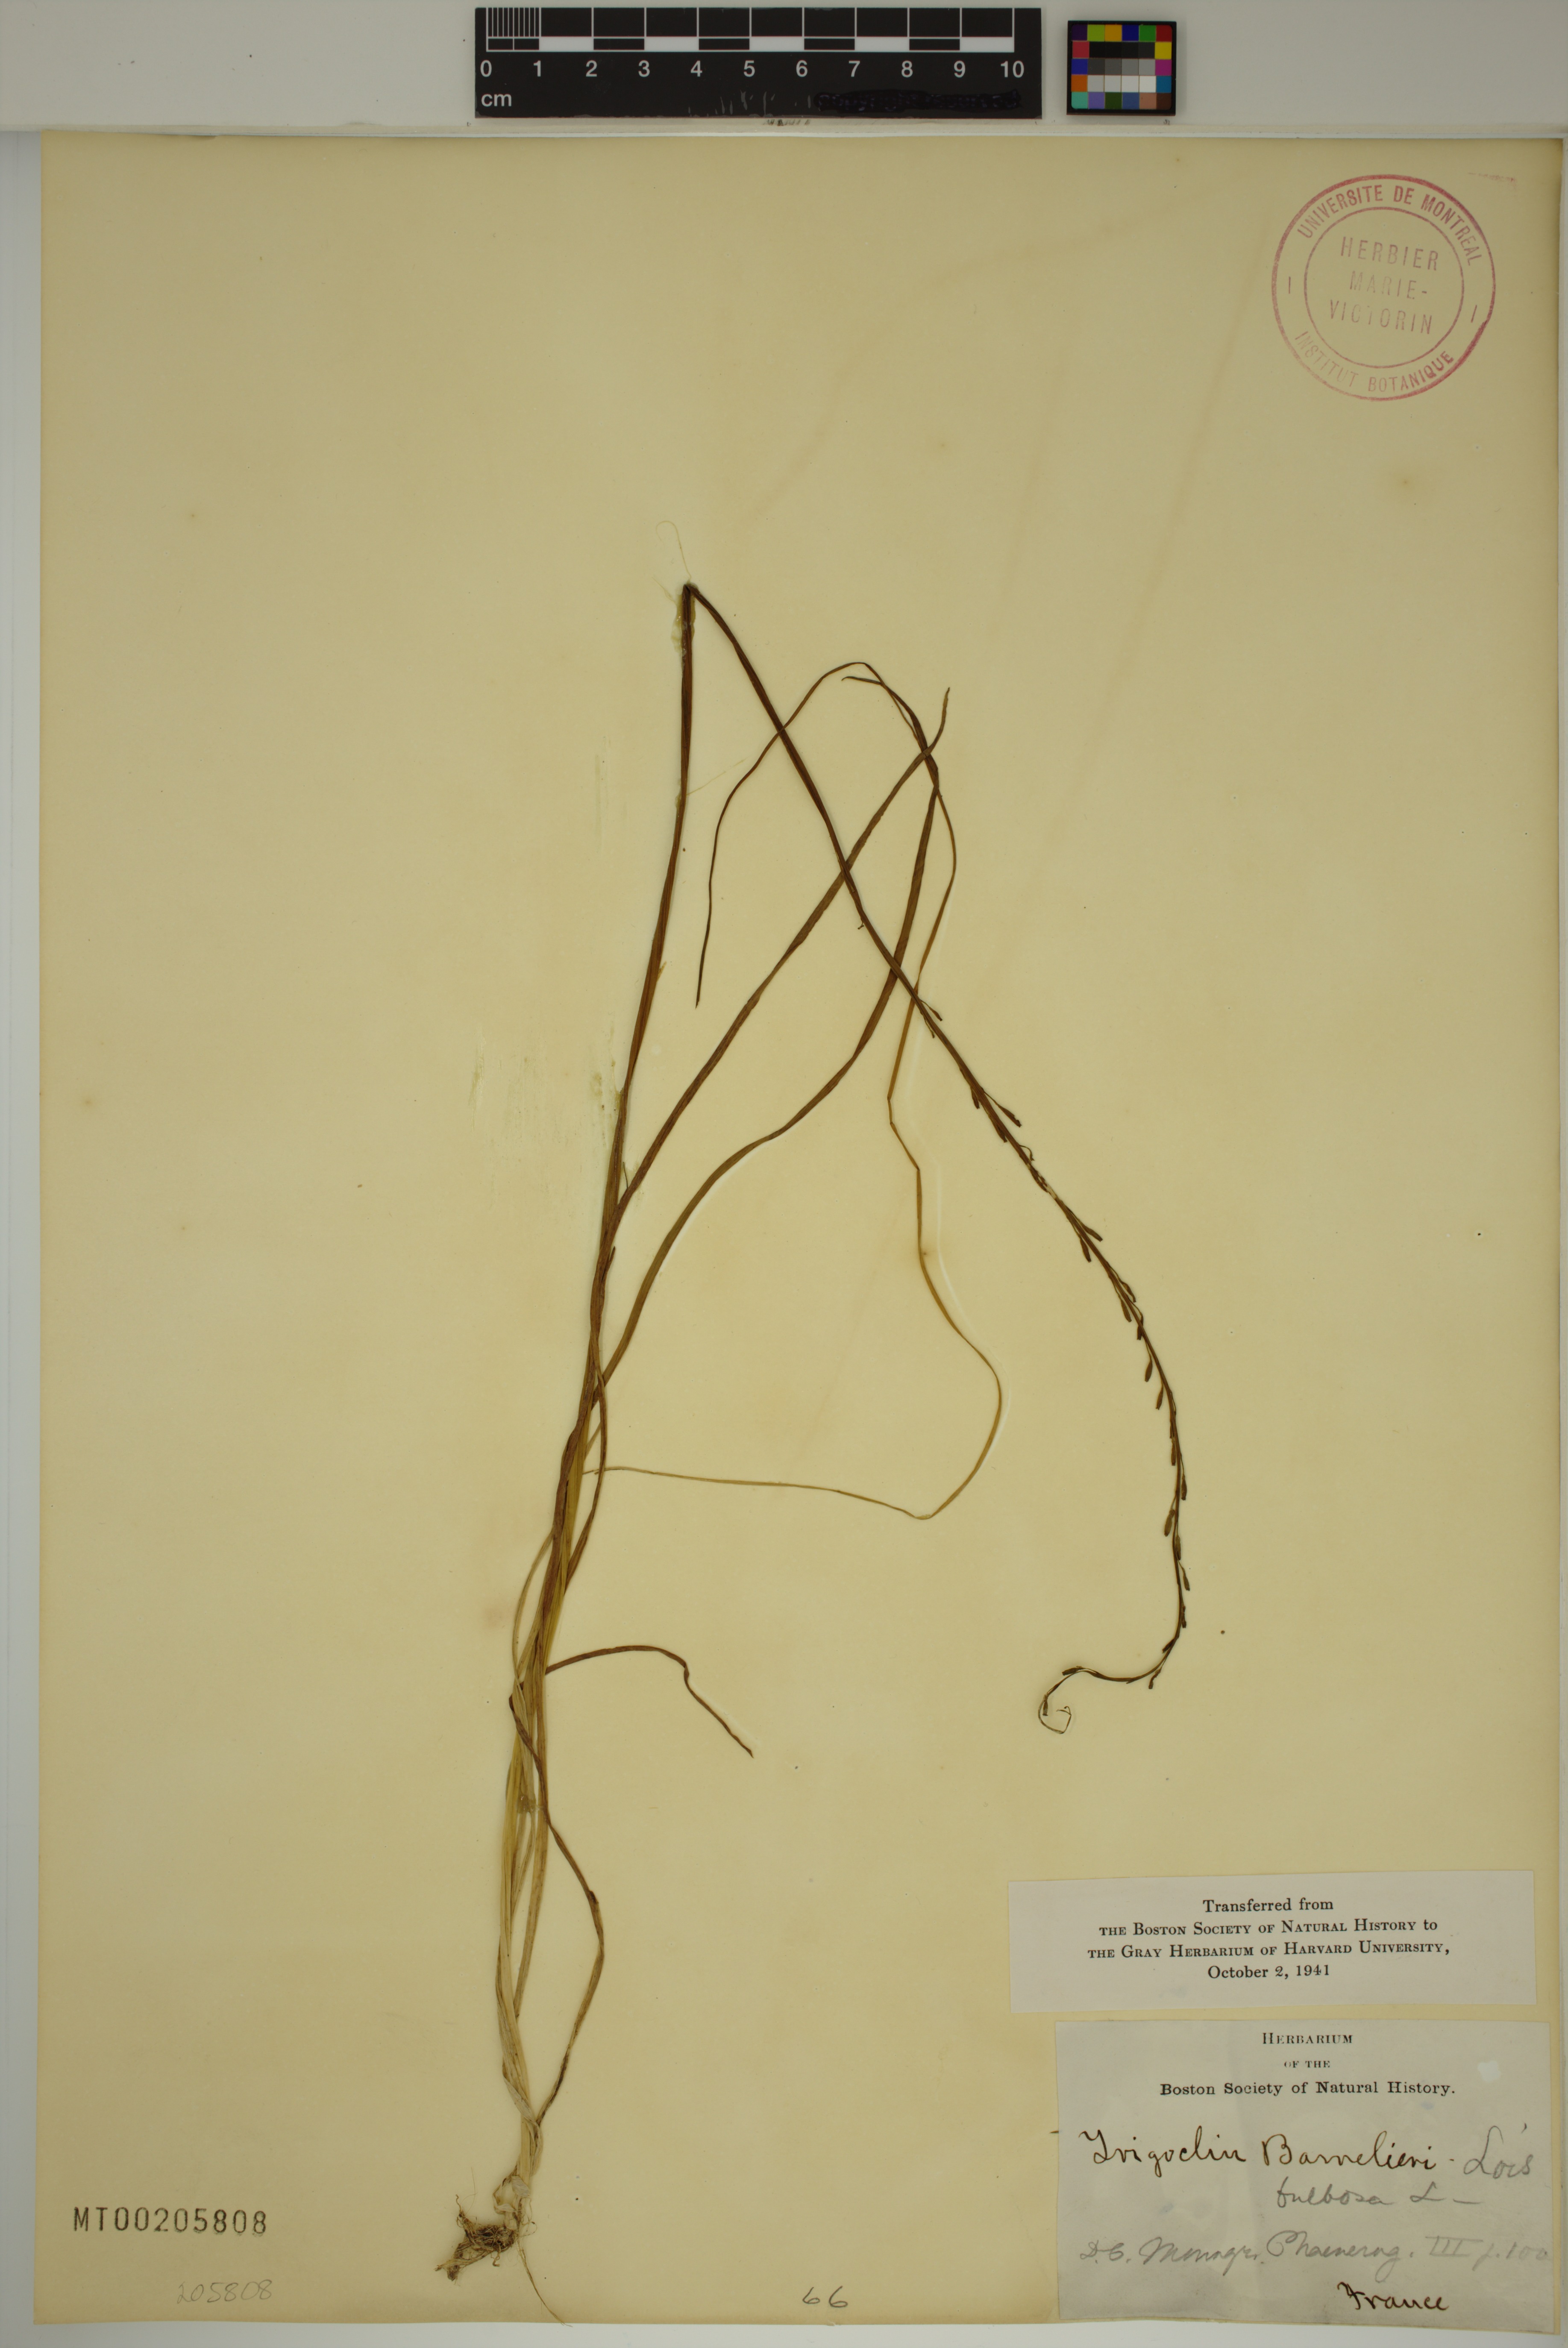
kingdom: Plantae
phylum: Tracheophyta
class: Liliopsida
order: Alismatales
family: Juncaginaceae
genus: Triglochin
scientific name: Triglochin barrelieri
